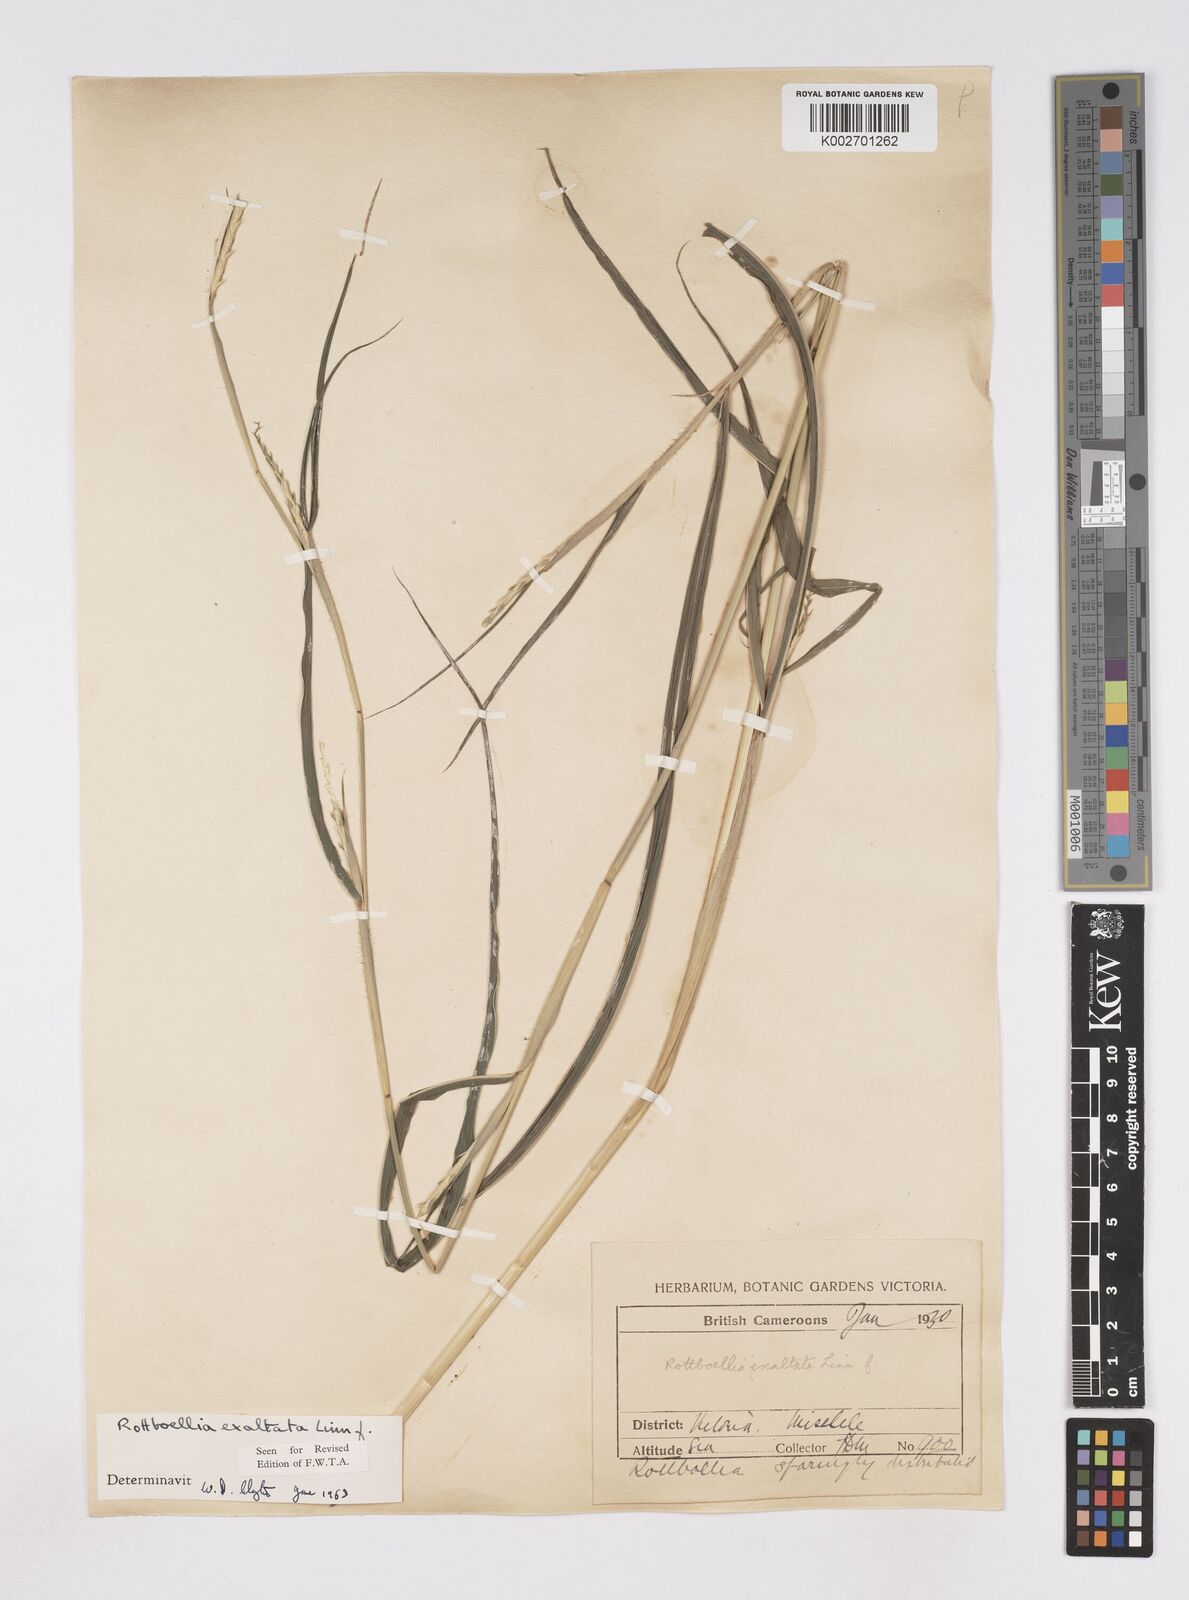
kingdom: Plantae
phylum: Tracheophyta
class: Liliopsida
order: Poales
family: Poaceae
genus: Rottboellia
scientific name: Rottboellia
